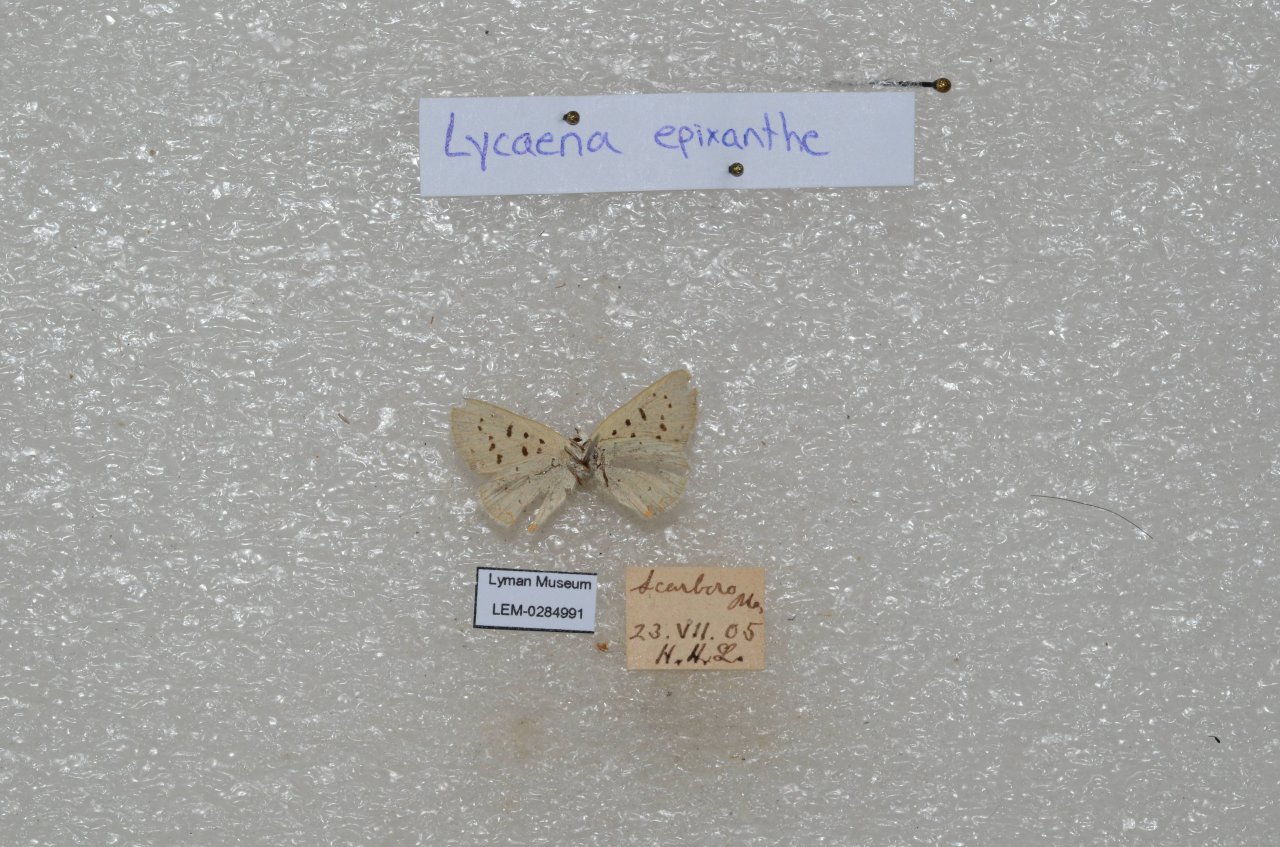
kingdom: Animalia
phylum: Arthropoda
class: Insecta
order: Lepidoptera
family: Sesiidae
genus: Sesia
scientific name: Sesia Lycaena epixanthe
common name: Bog Copper
